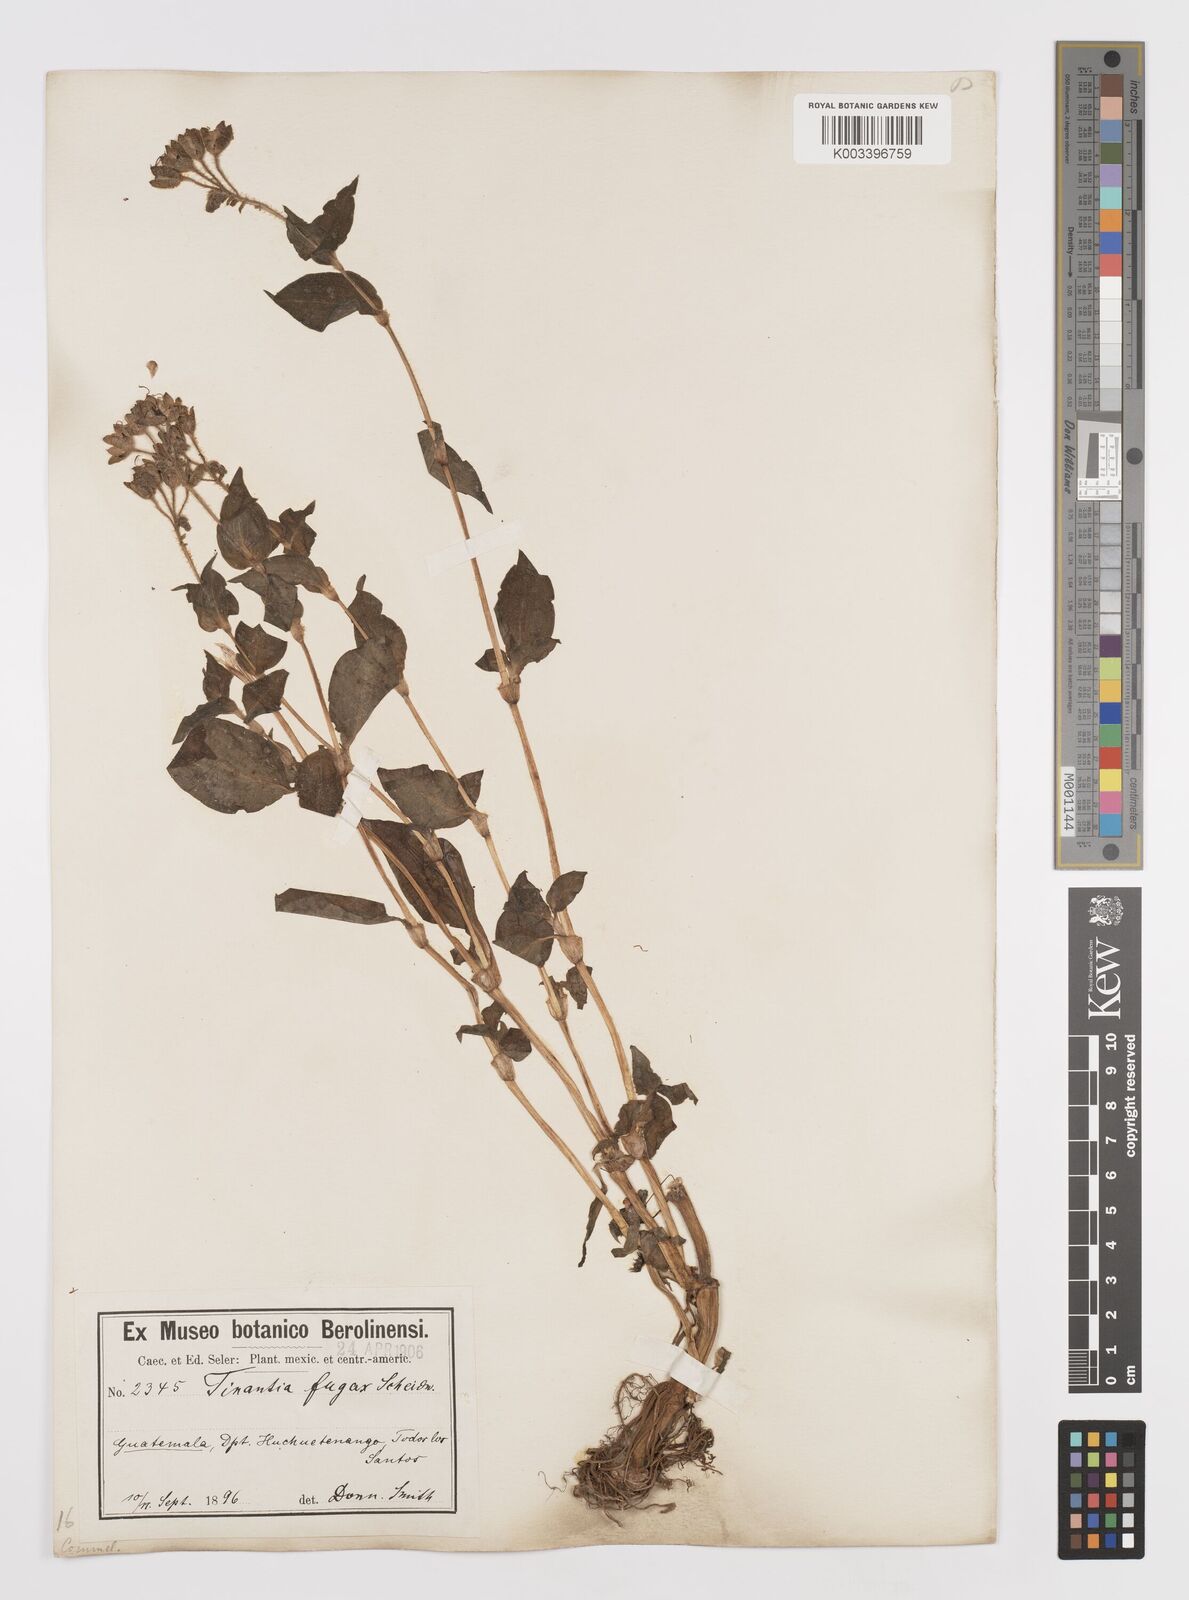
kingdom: Plantae
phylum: Tracheophyta
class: Liliopsida
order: Commelinales
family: Commelinaceae
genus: Tinantia
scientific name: Tinantia erecta
